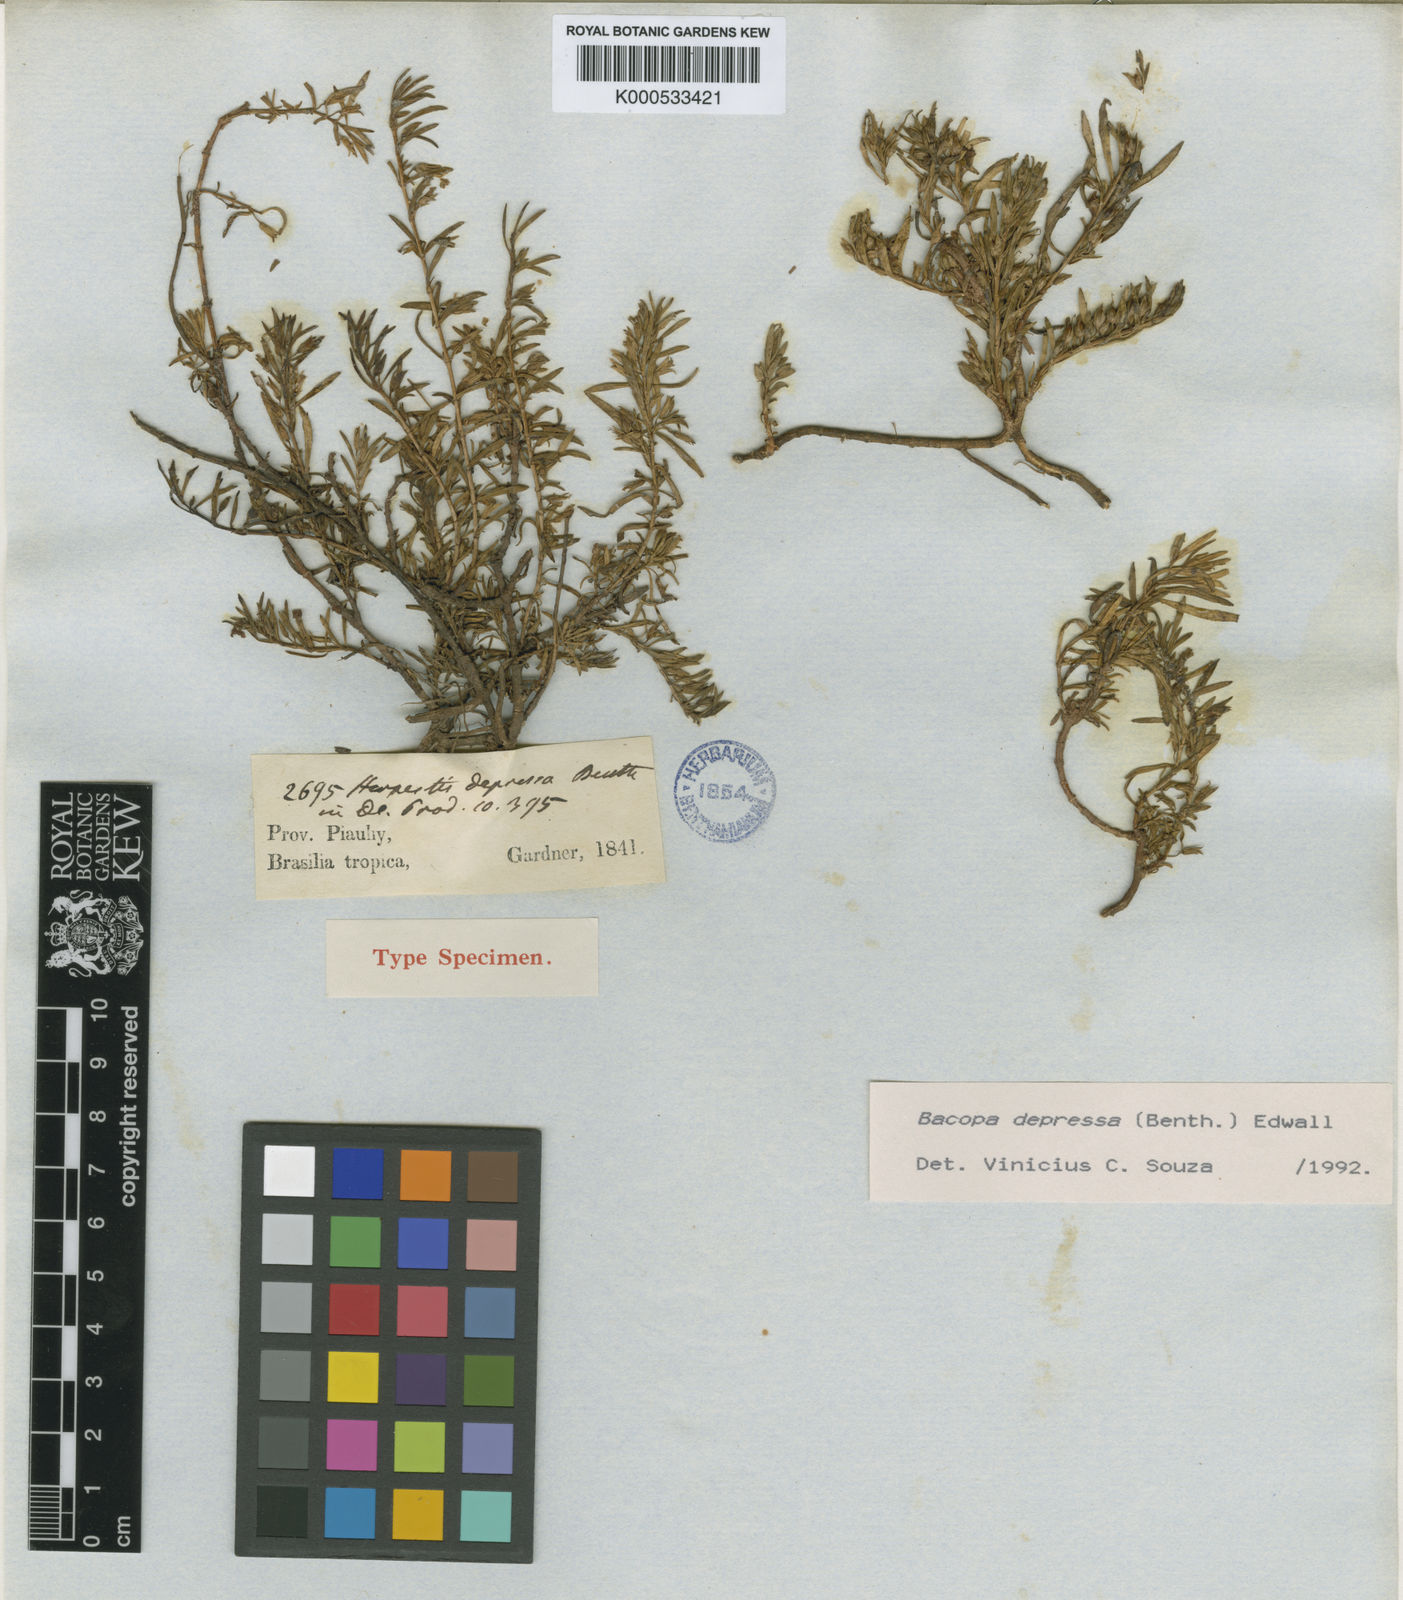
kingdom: Plantae
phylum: Tracheophyta
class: Magnoliopsida
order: Lamiales
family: Plantaginaceae
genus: Bacopa
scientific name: Bacopa depressa
